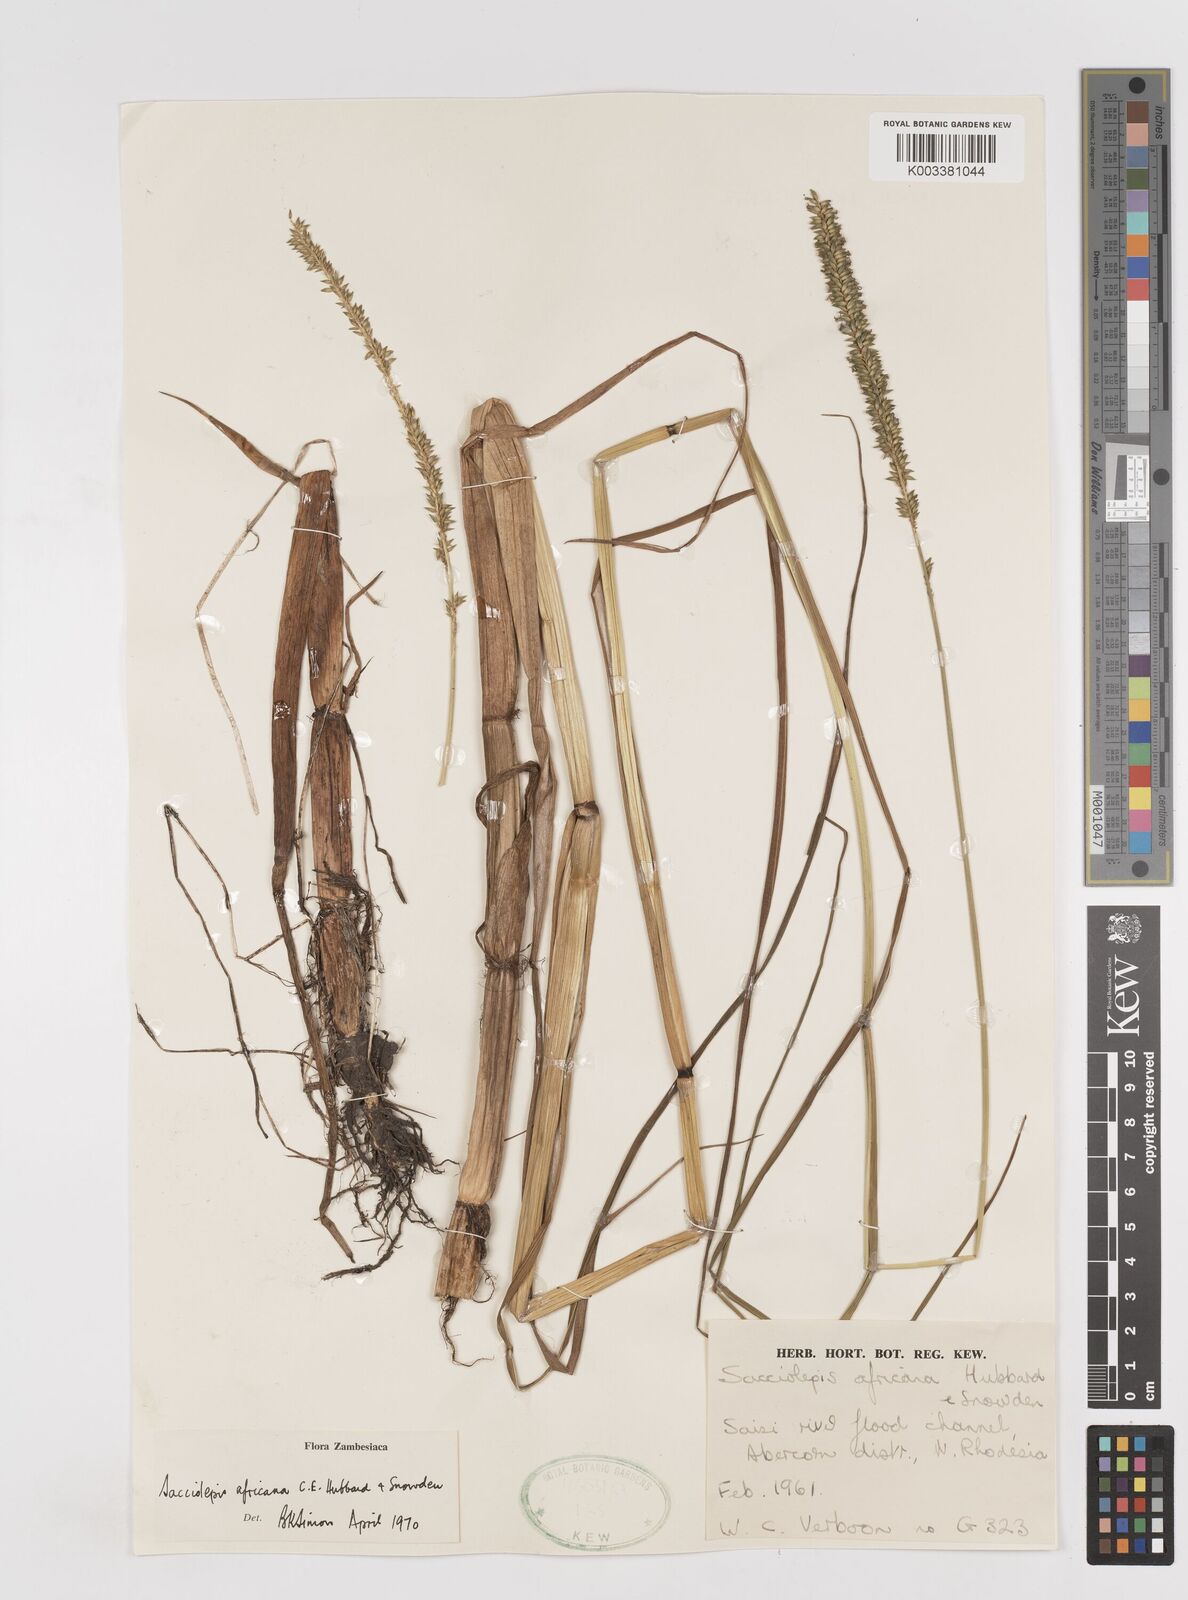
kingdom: Plantae
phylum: Tracheophyta
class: Liliopsida
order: Poales
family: Poaceae
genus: Sacciolepis
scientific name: Sacciolepis africana
